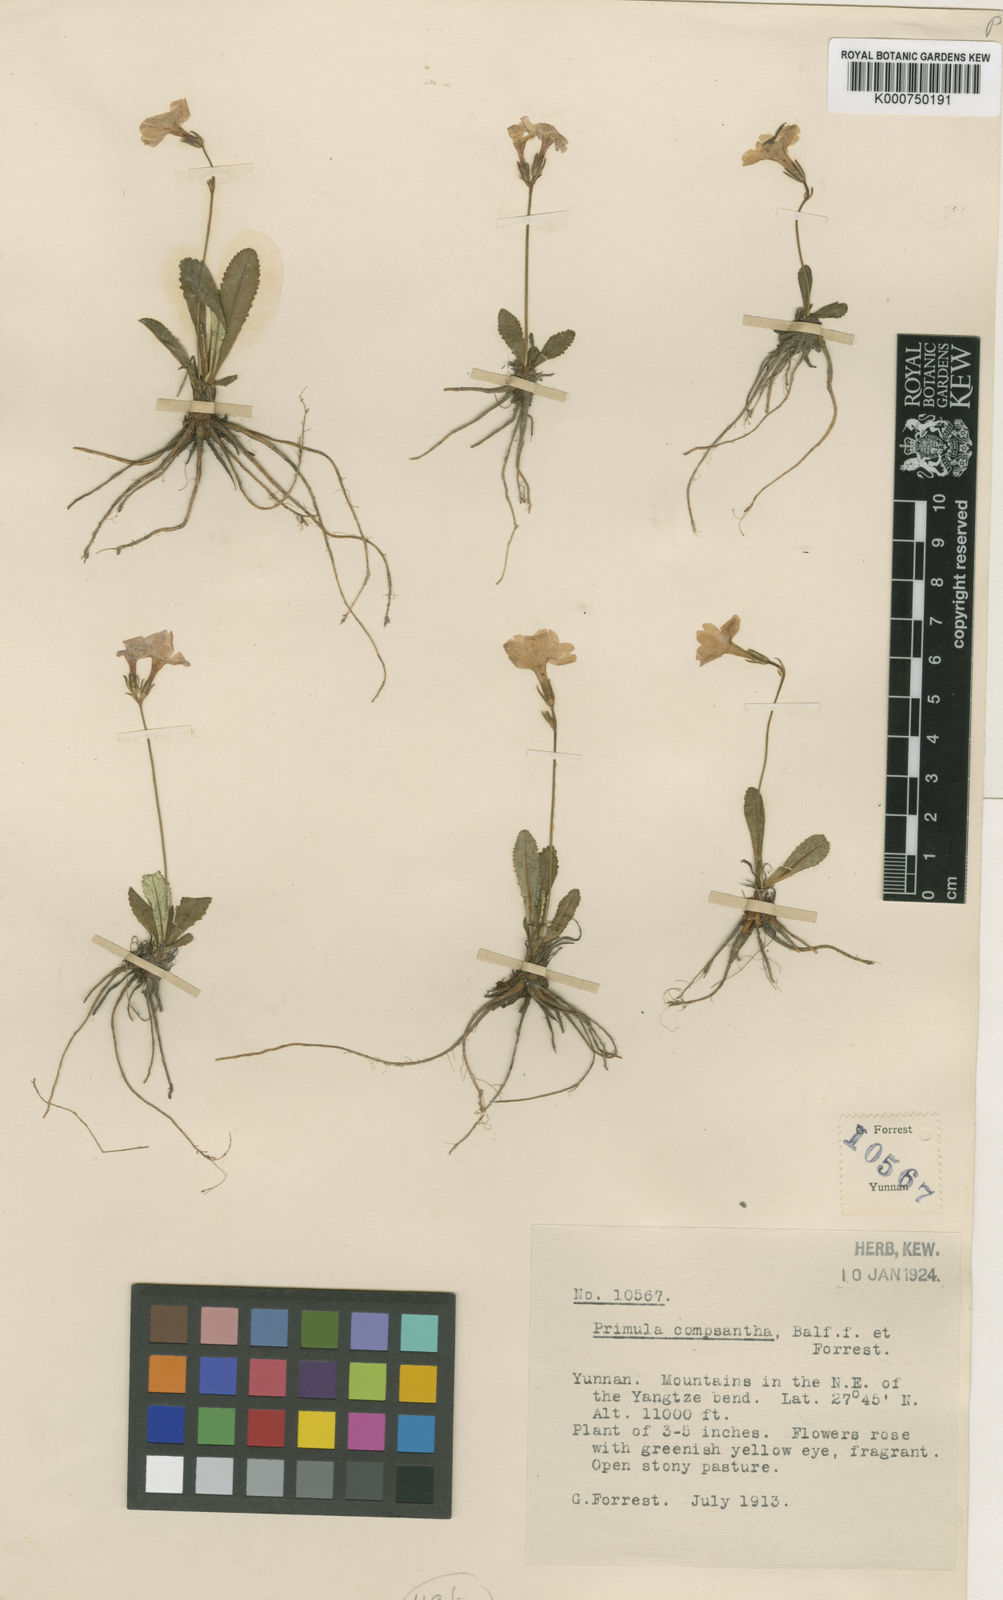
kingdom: Plantae
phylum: Tracheophyta
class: Magnoliopsida
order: Ericales
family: Primulaceae
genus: Primula
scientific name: Primula pulchella
